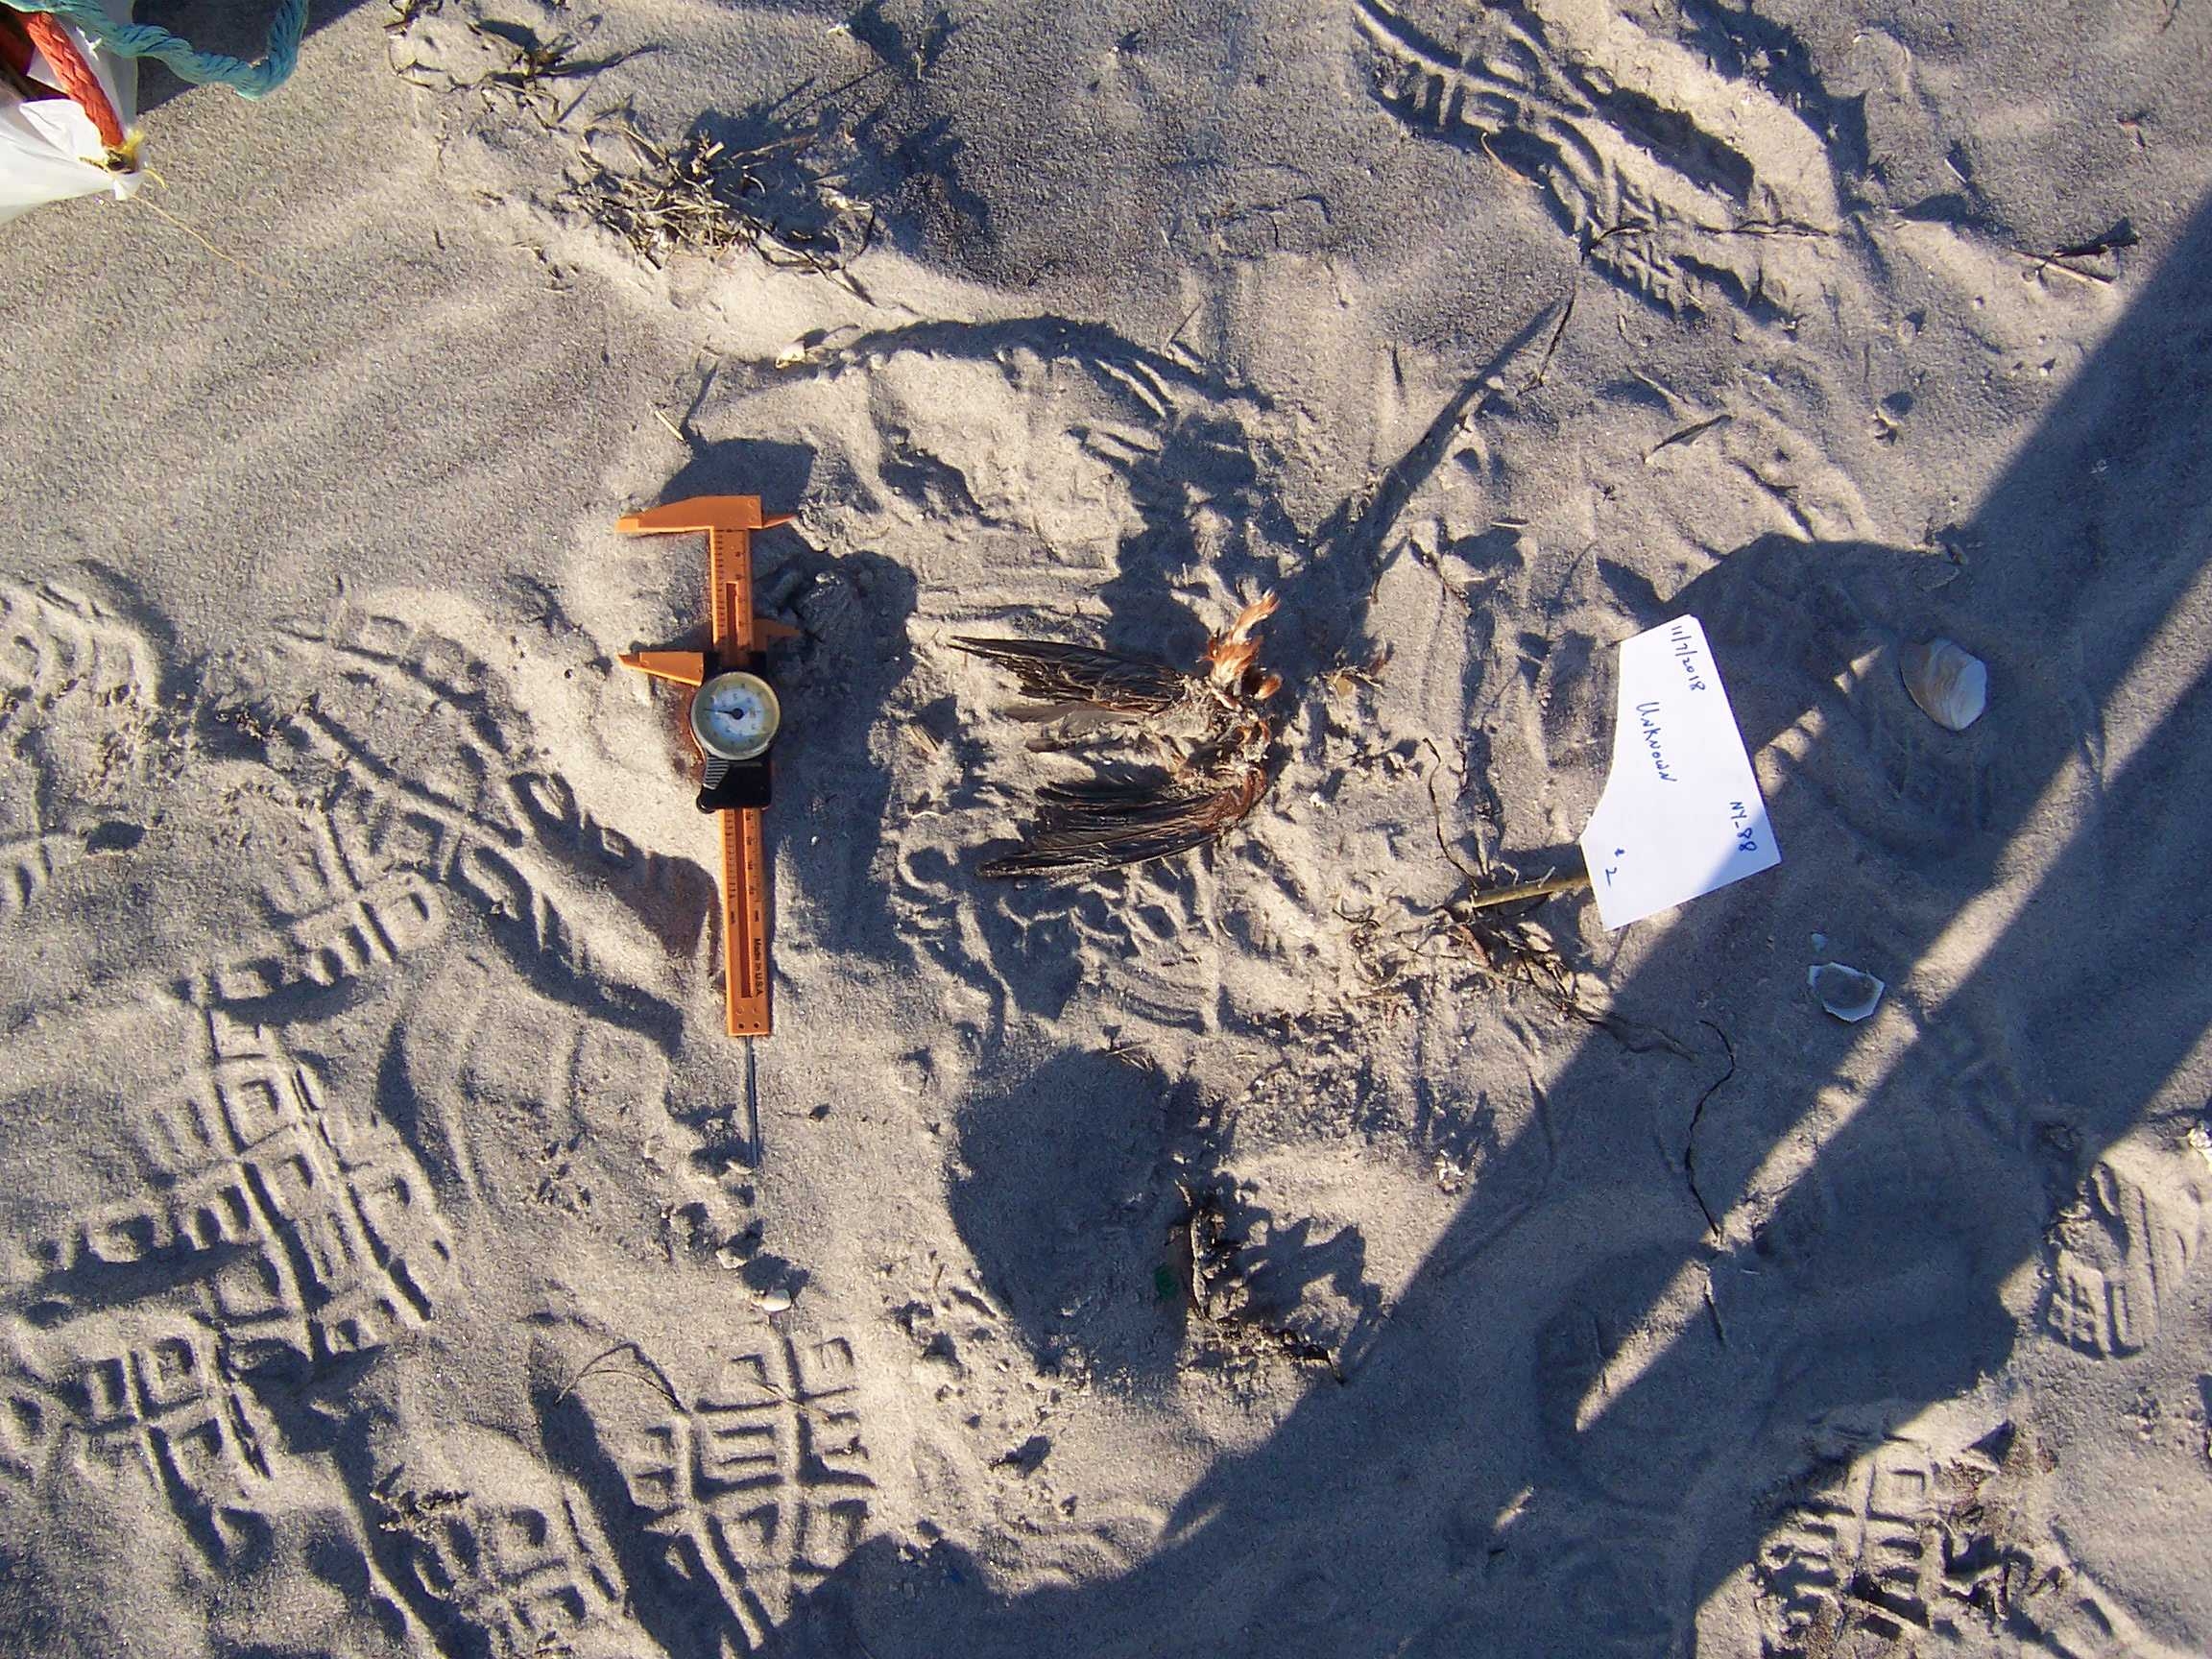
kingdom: Animalia
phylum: Chordata
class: Aves
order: Charadriiformes
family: Laridae
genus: Larus
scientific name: Larus marinus
